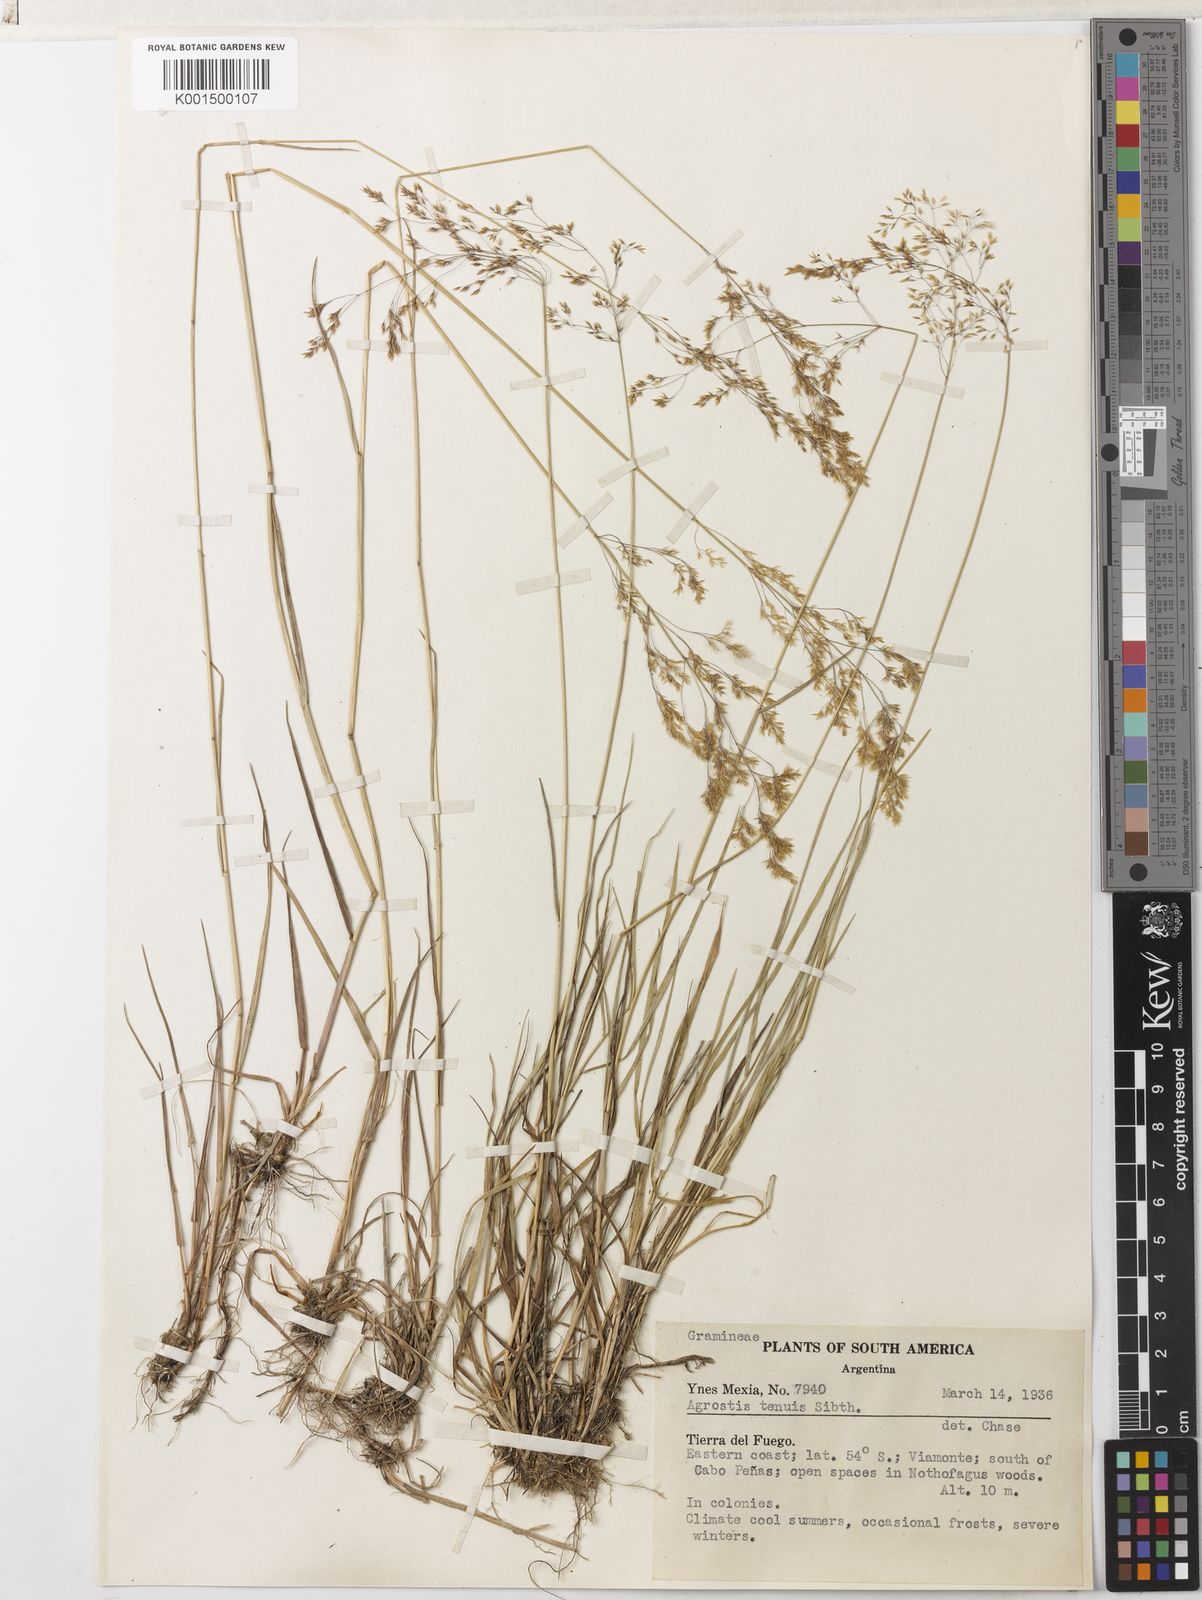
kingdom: Plantae
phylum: Tracheophyta
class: Liliopsida
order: Poales
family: Poaceae
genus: Agrostis
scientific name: Agrostis capillaris
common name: Colonial bentgrass
